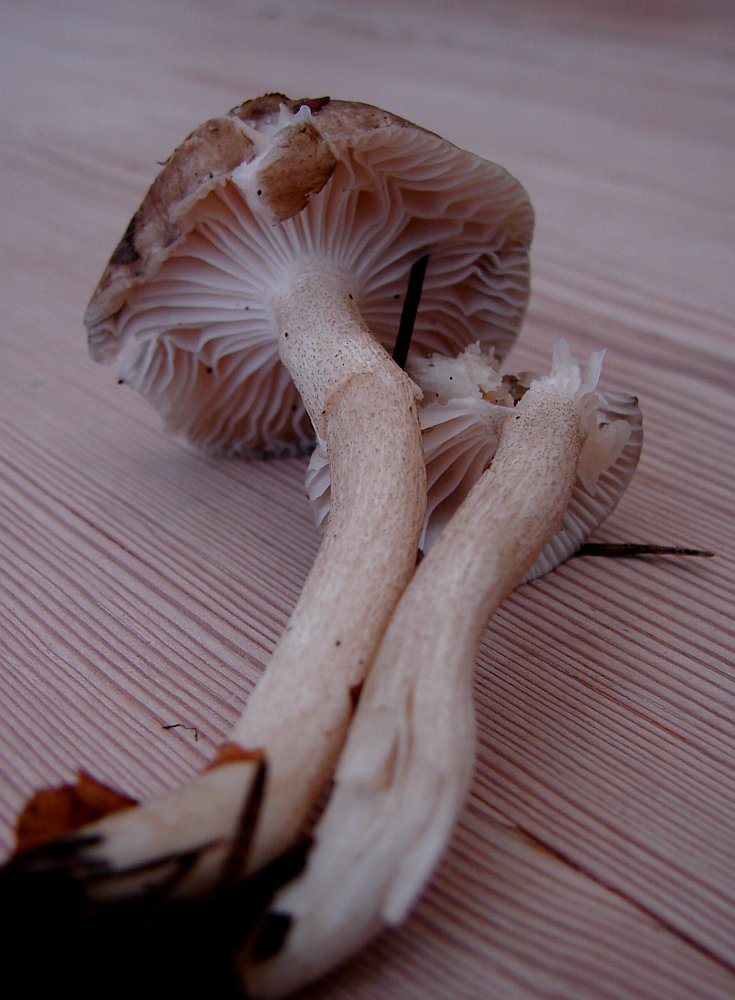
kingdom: Fungi
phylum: Basidiomycota
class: Agaricomycetes
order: Agaricales
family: Hygrophoraceae
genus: Hygrophorus
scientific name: Hygrophorus pustulatus
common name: mørkprikket sneglehat
